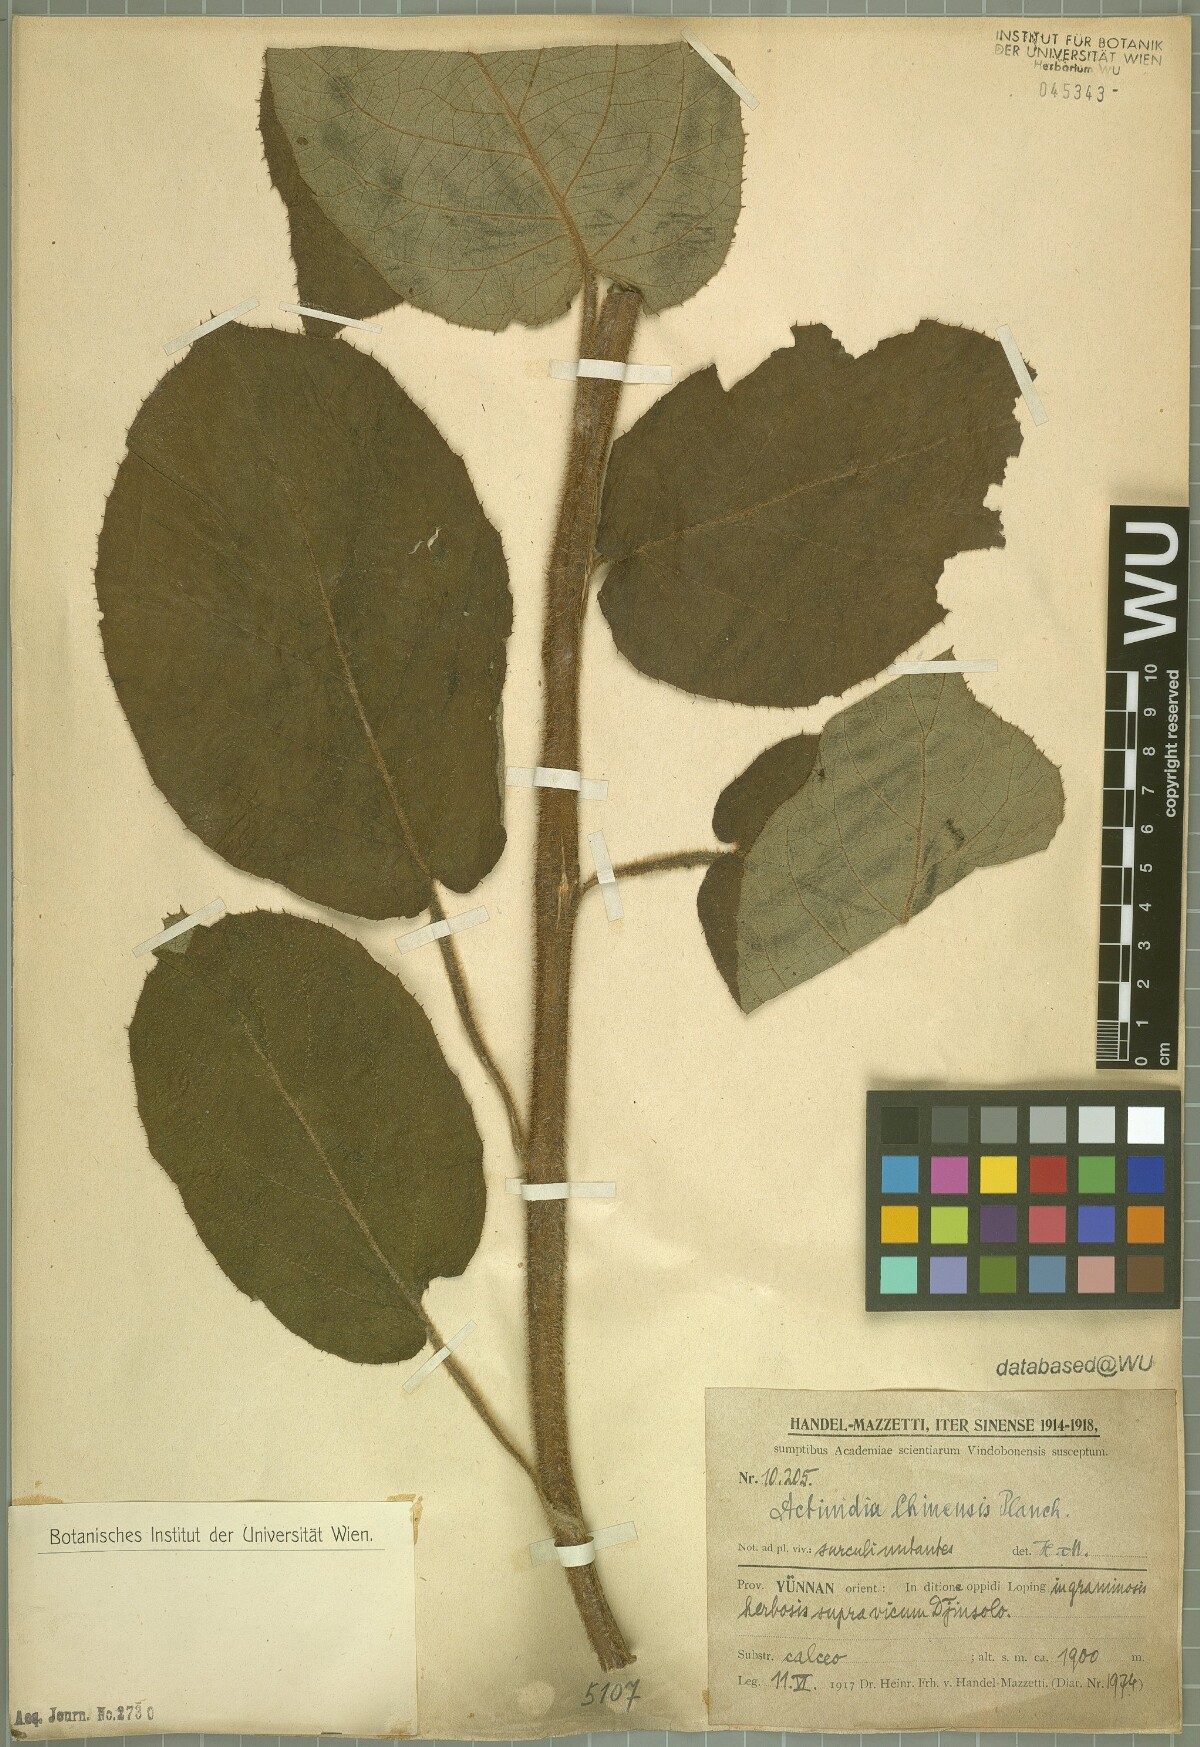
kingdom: Plantae
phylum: Tracheophyta
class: Magnoliopsida
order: Ericales
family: Actinidiaceae
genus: Actinidia
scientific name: Actinidia chinensis
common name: Kiwi
